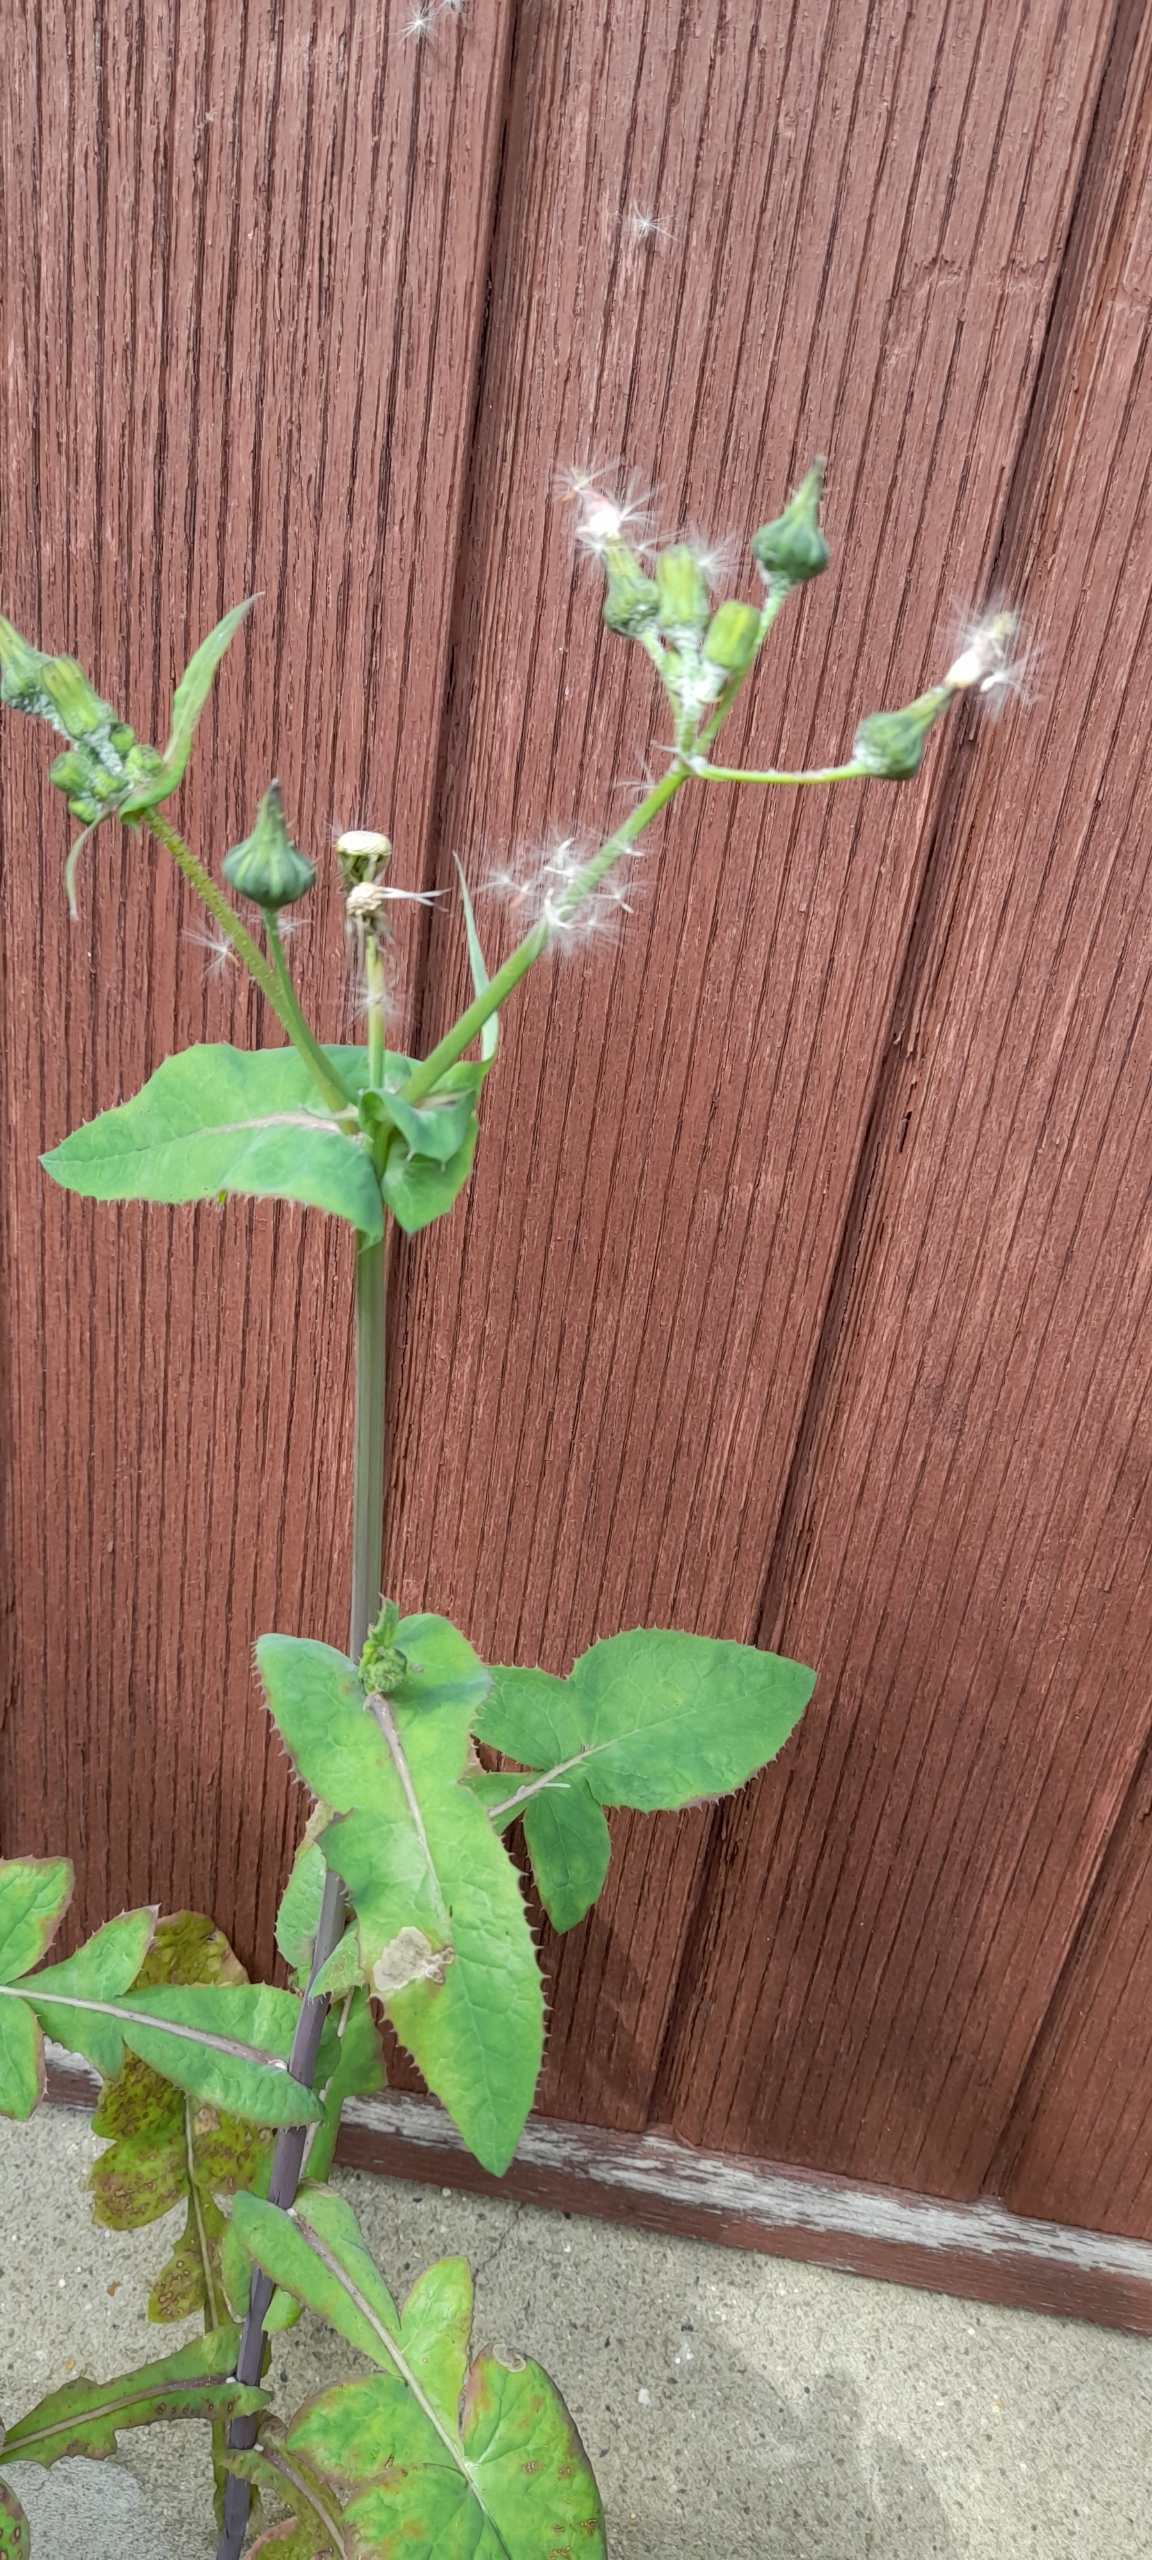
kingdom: Plantae
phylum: Tracheophyta
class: Magnoliopsida
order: Asterales
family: Asteraceae
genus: Sonchus
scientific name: Sonchus oleraceus
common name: Almindelig svinemælk
